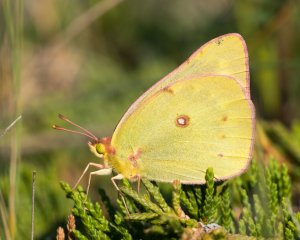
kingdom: Animalia
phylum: Arthropoda
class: Insecta
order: Lepidoptera
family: Pieridae
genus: Colias
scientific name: Colias philodice
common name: Clouded Sulphur
